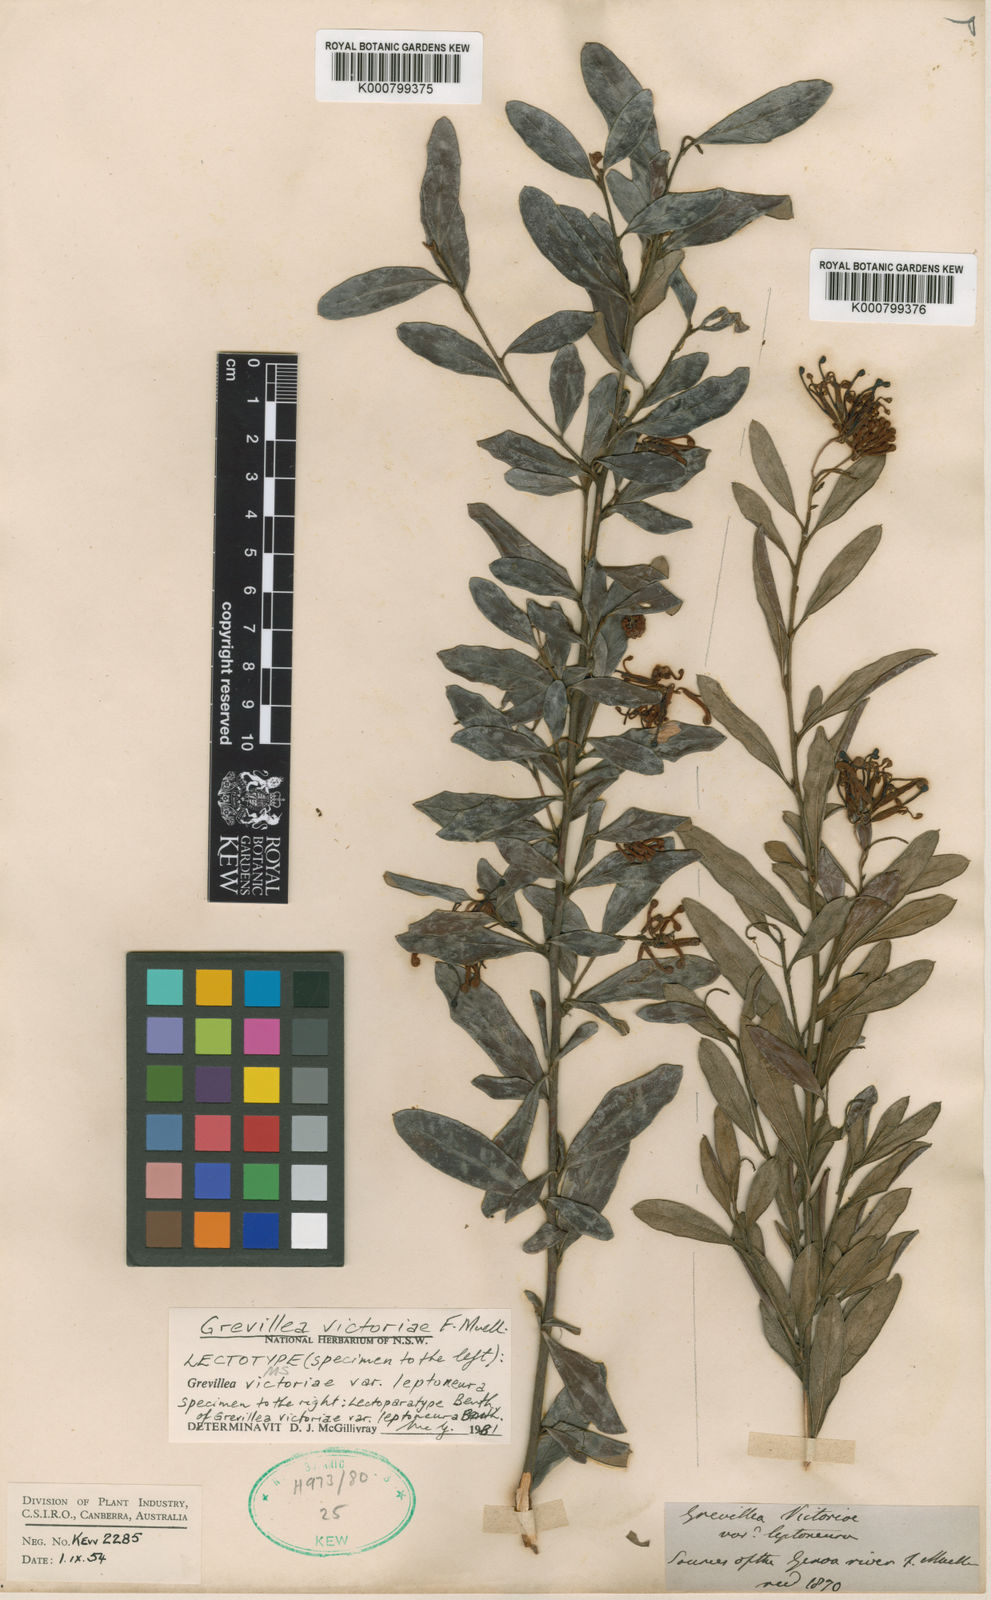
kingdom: Plantae
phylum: Tracheophyta
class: Magnoliopsida
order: Proteales
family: Proteaceae
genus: Grevillea
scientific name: Grevillea victoriae
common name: Royal grevillea
